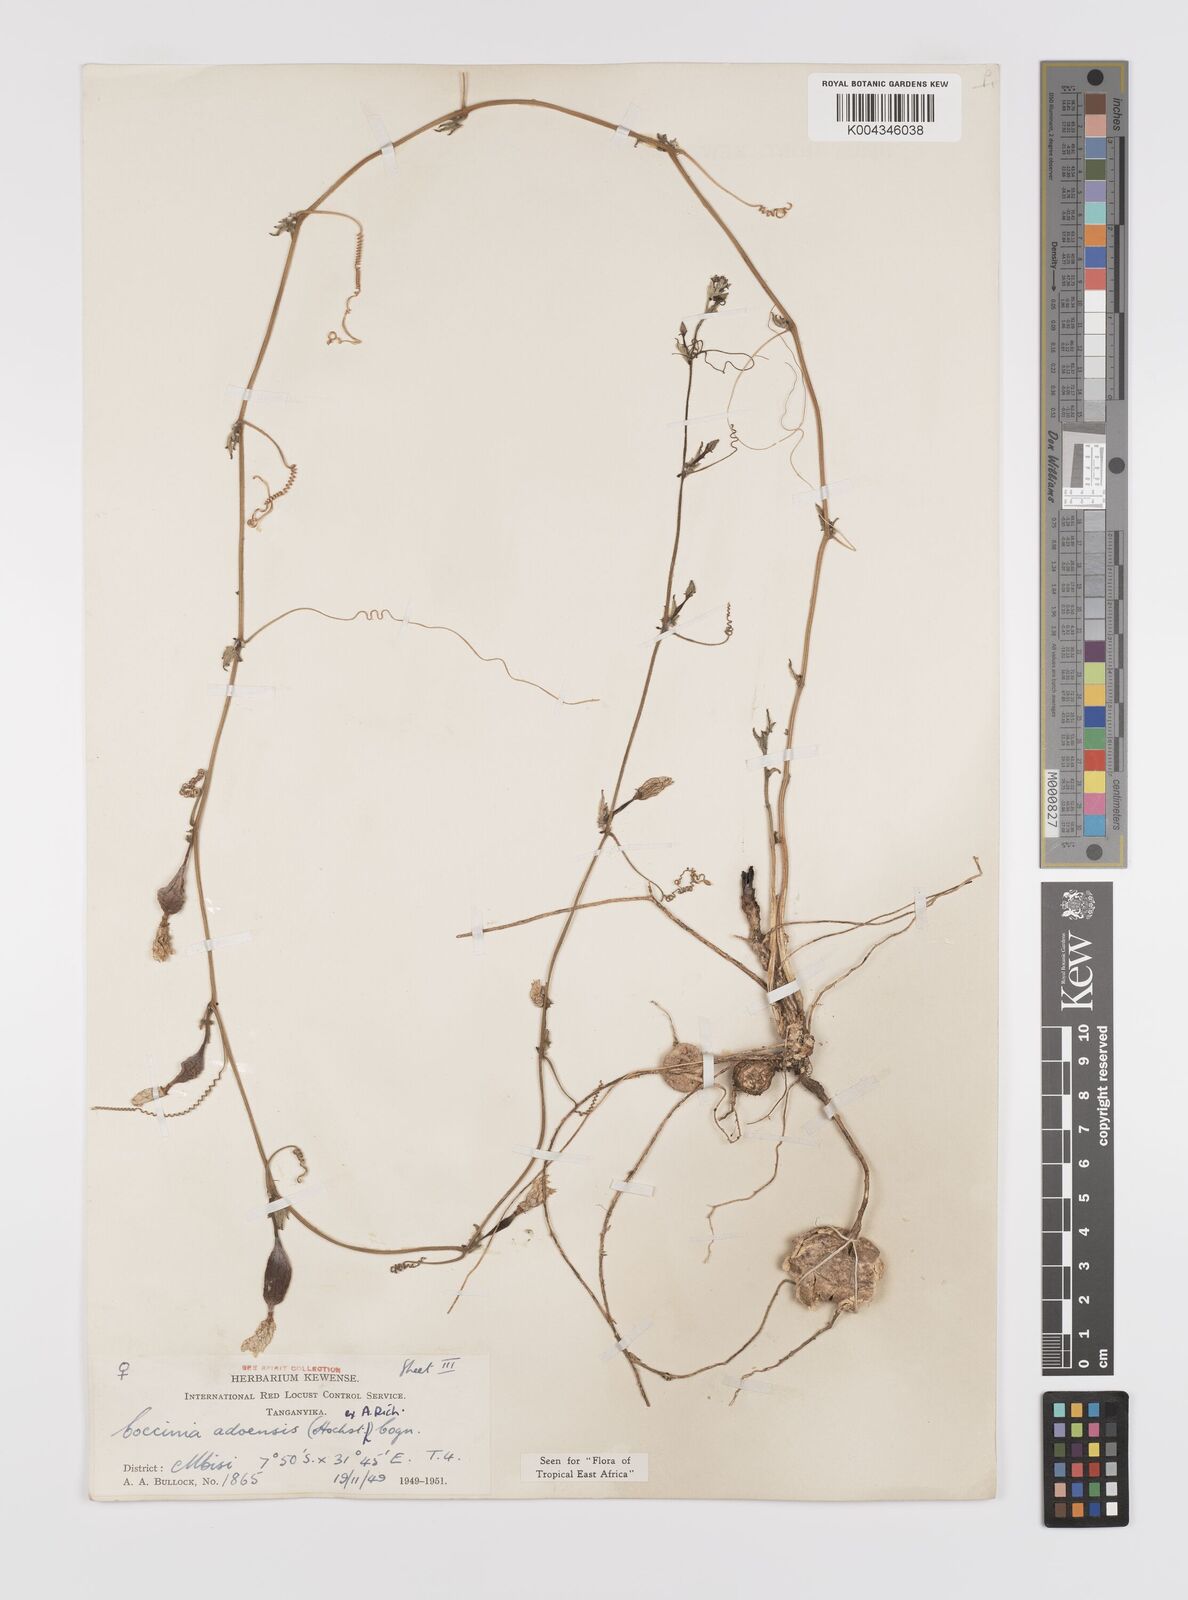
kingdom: Plantae
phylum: Tracheophyta
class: Magnoliopsida
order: Cucurbitales
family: Cucurbitaceae
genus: Coccinia
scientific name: Coccinia adoensis
